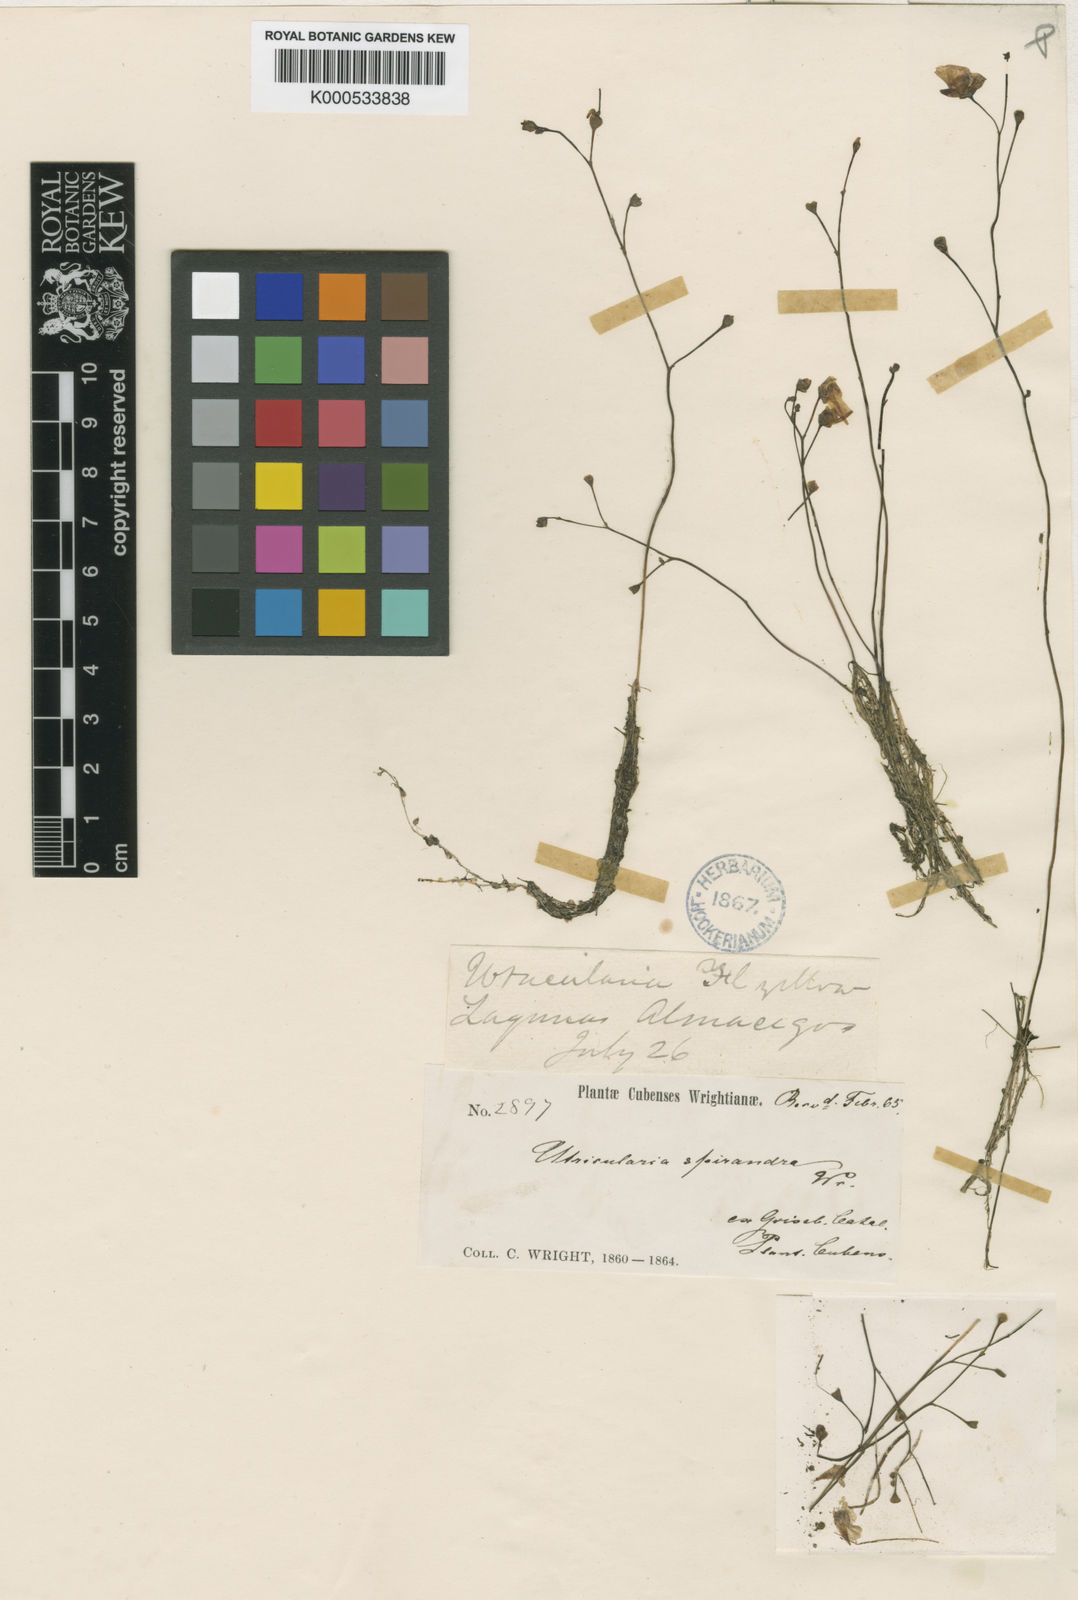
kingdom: Plantae
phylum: Tracheophyta
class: Magnoliopsida
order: Lamiales
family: Lentibulariaceae
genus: Utricularia
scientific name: Utricularia gibba
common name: Humped bladderwort
